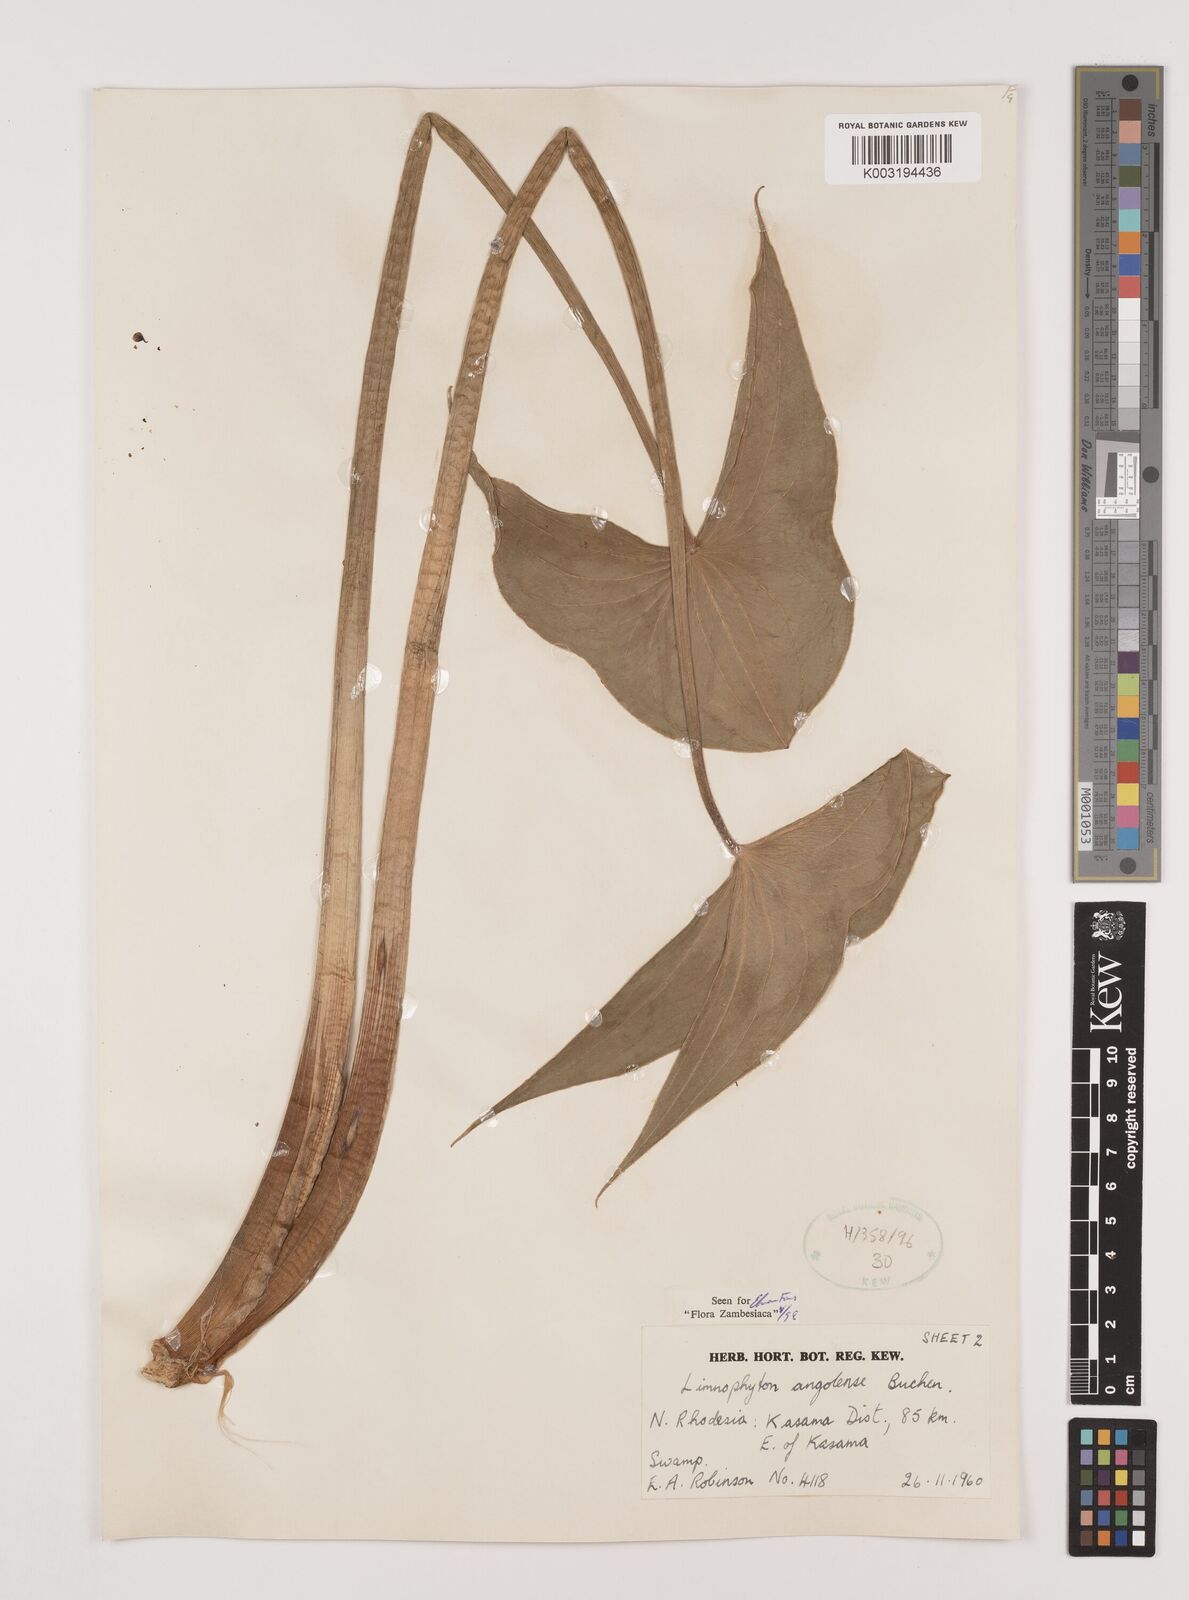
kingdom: Plantae
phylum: Tracheophyta
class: Liliopsida
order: Alismatales
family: Alismataceae
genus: Limnophyton
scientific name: Limnophyton
